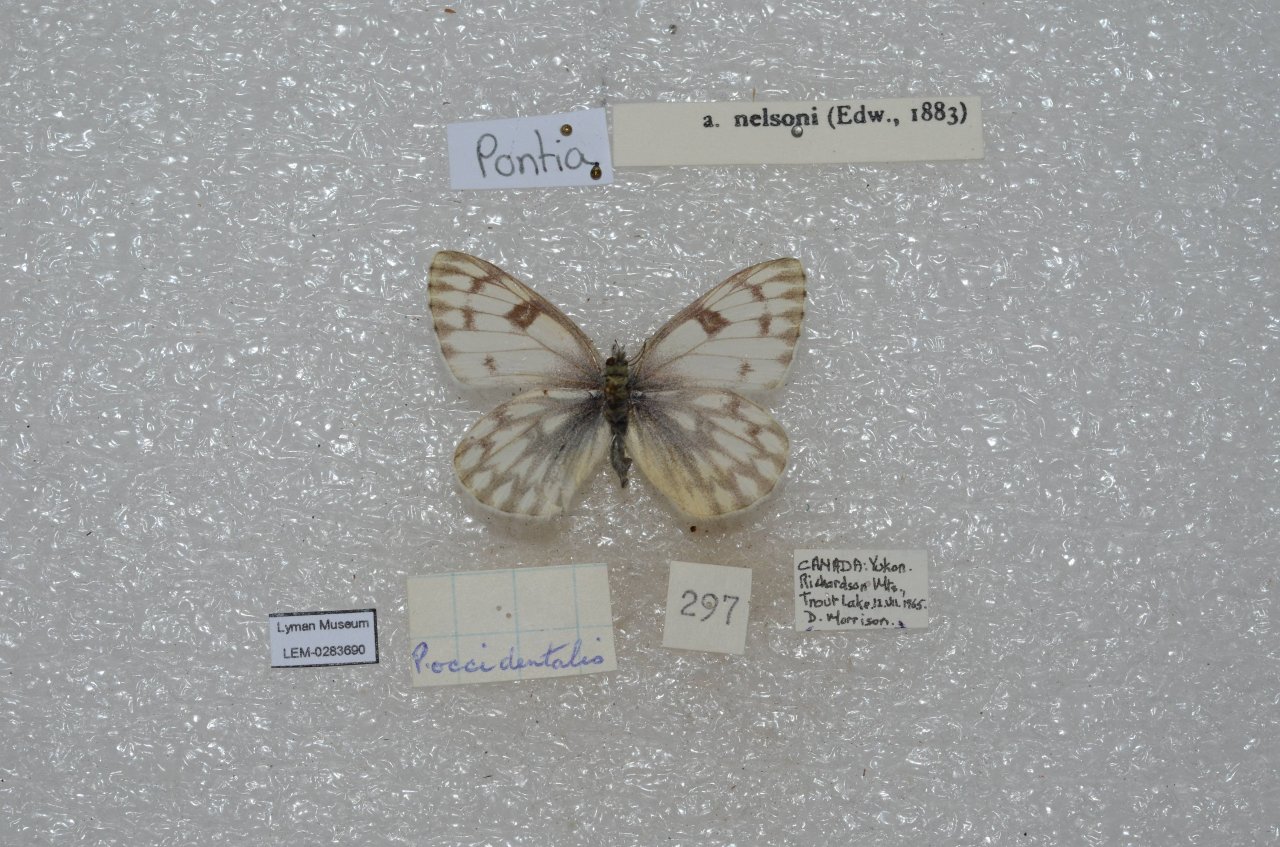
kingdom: Animalia
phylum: Arthropoda
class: Insecta
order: Lepidoptera
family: Pieridae
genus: Pontia
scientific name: Pontia occidentalis
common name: Western White
